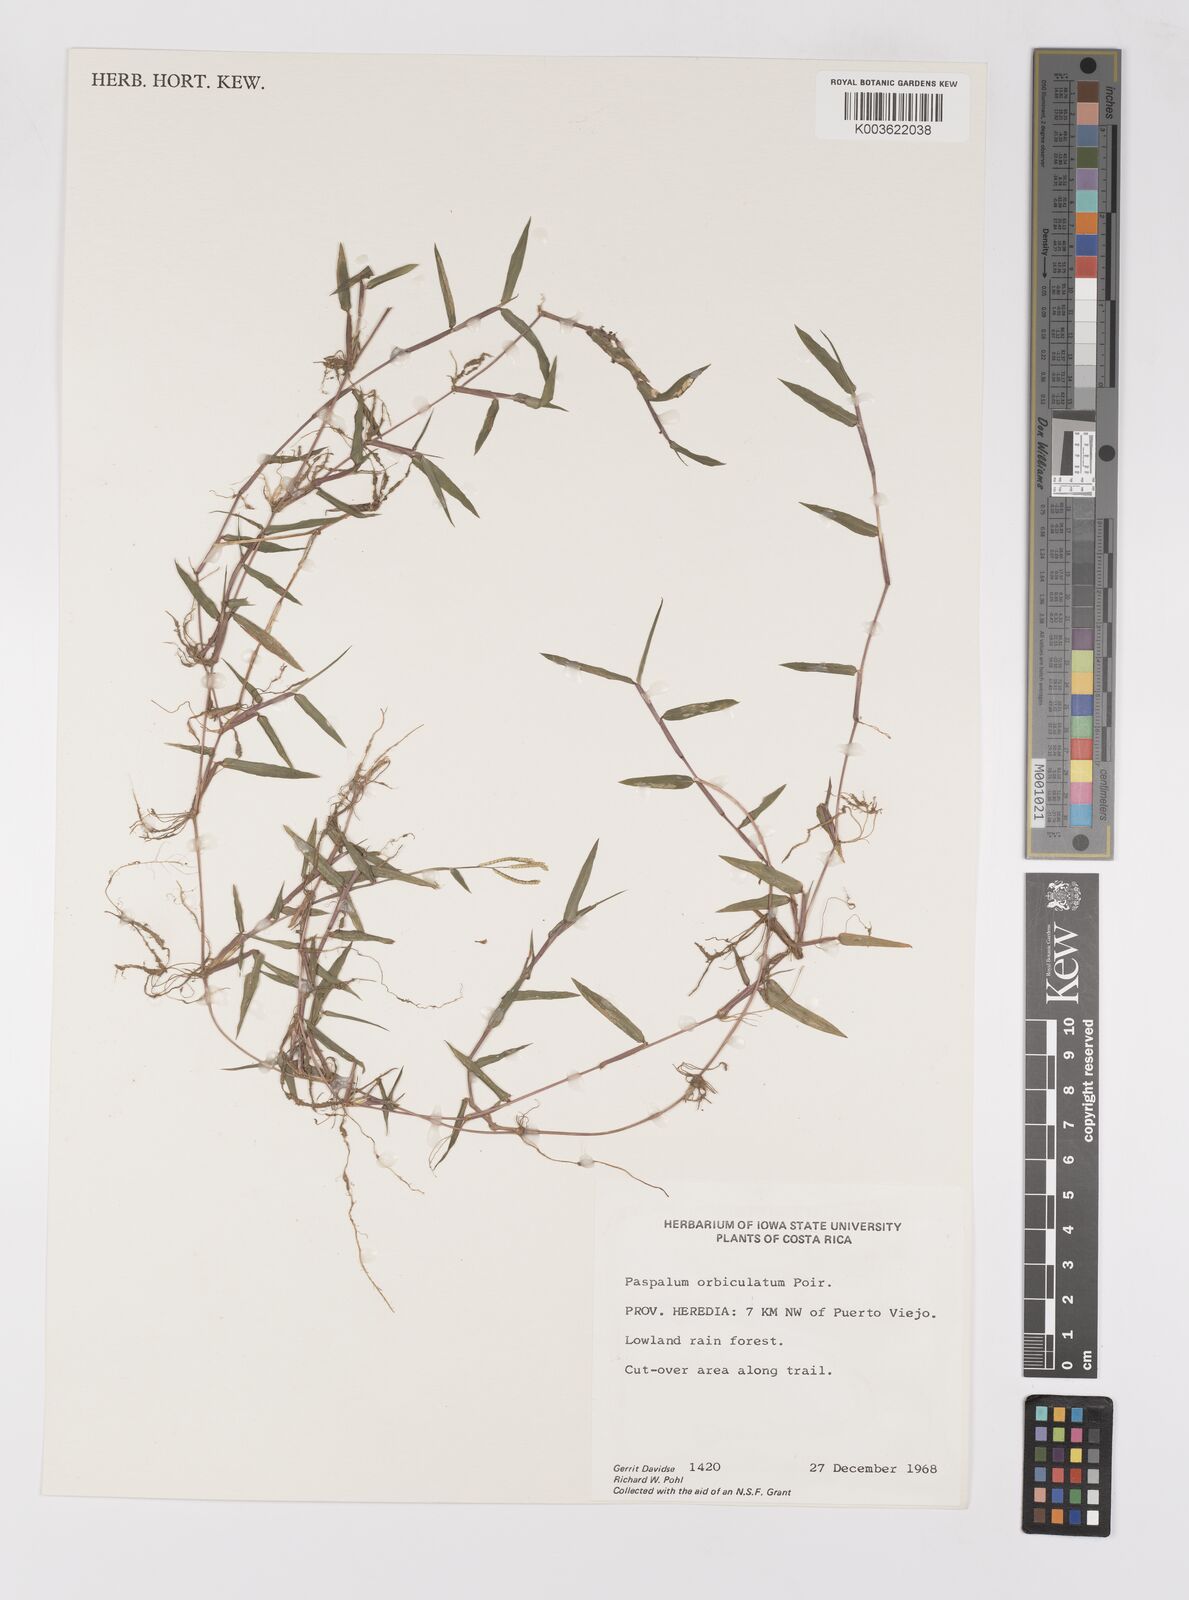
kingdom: Plantae
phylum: Tracheophyta
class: Liliopsida
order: Poales
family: Poaceae
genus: Paspalum
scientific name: Paspalum orbiculatum
